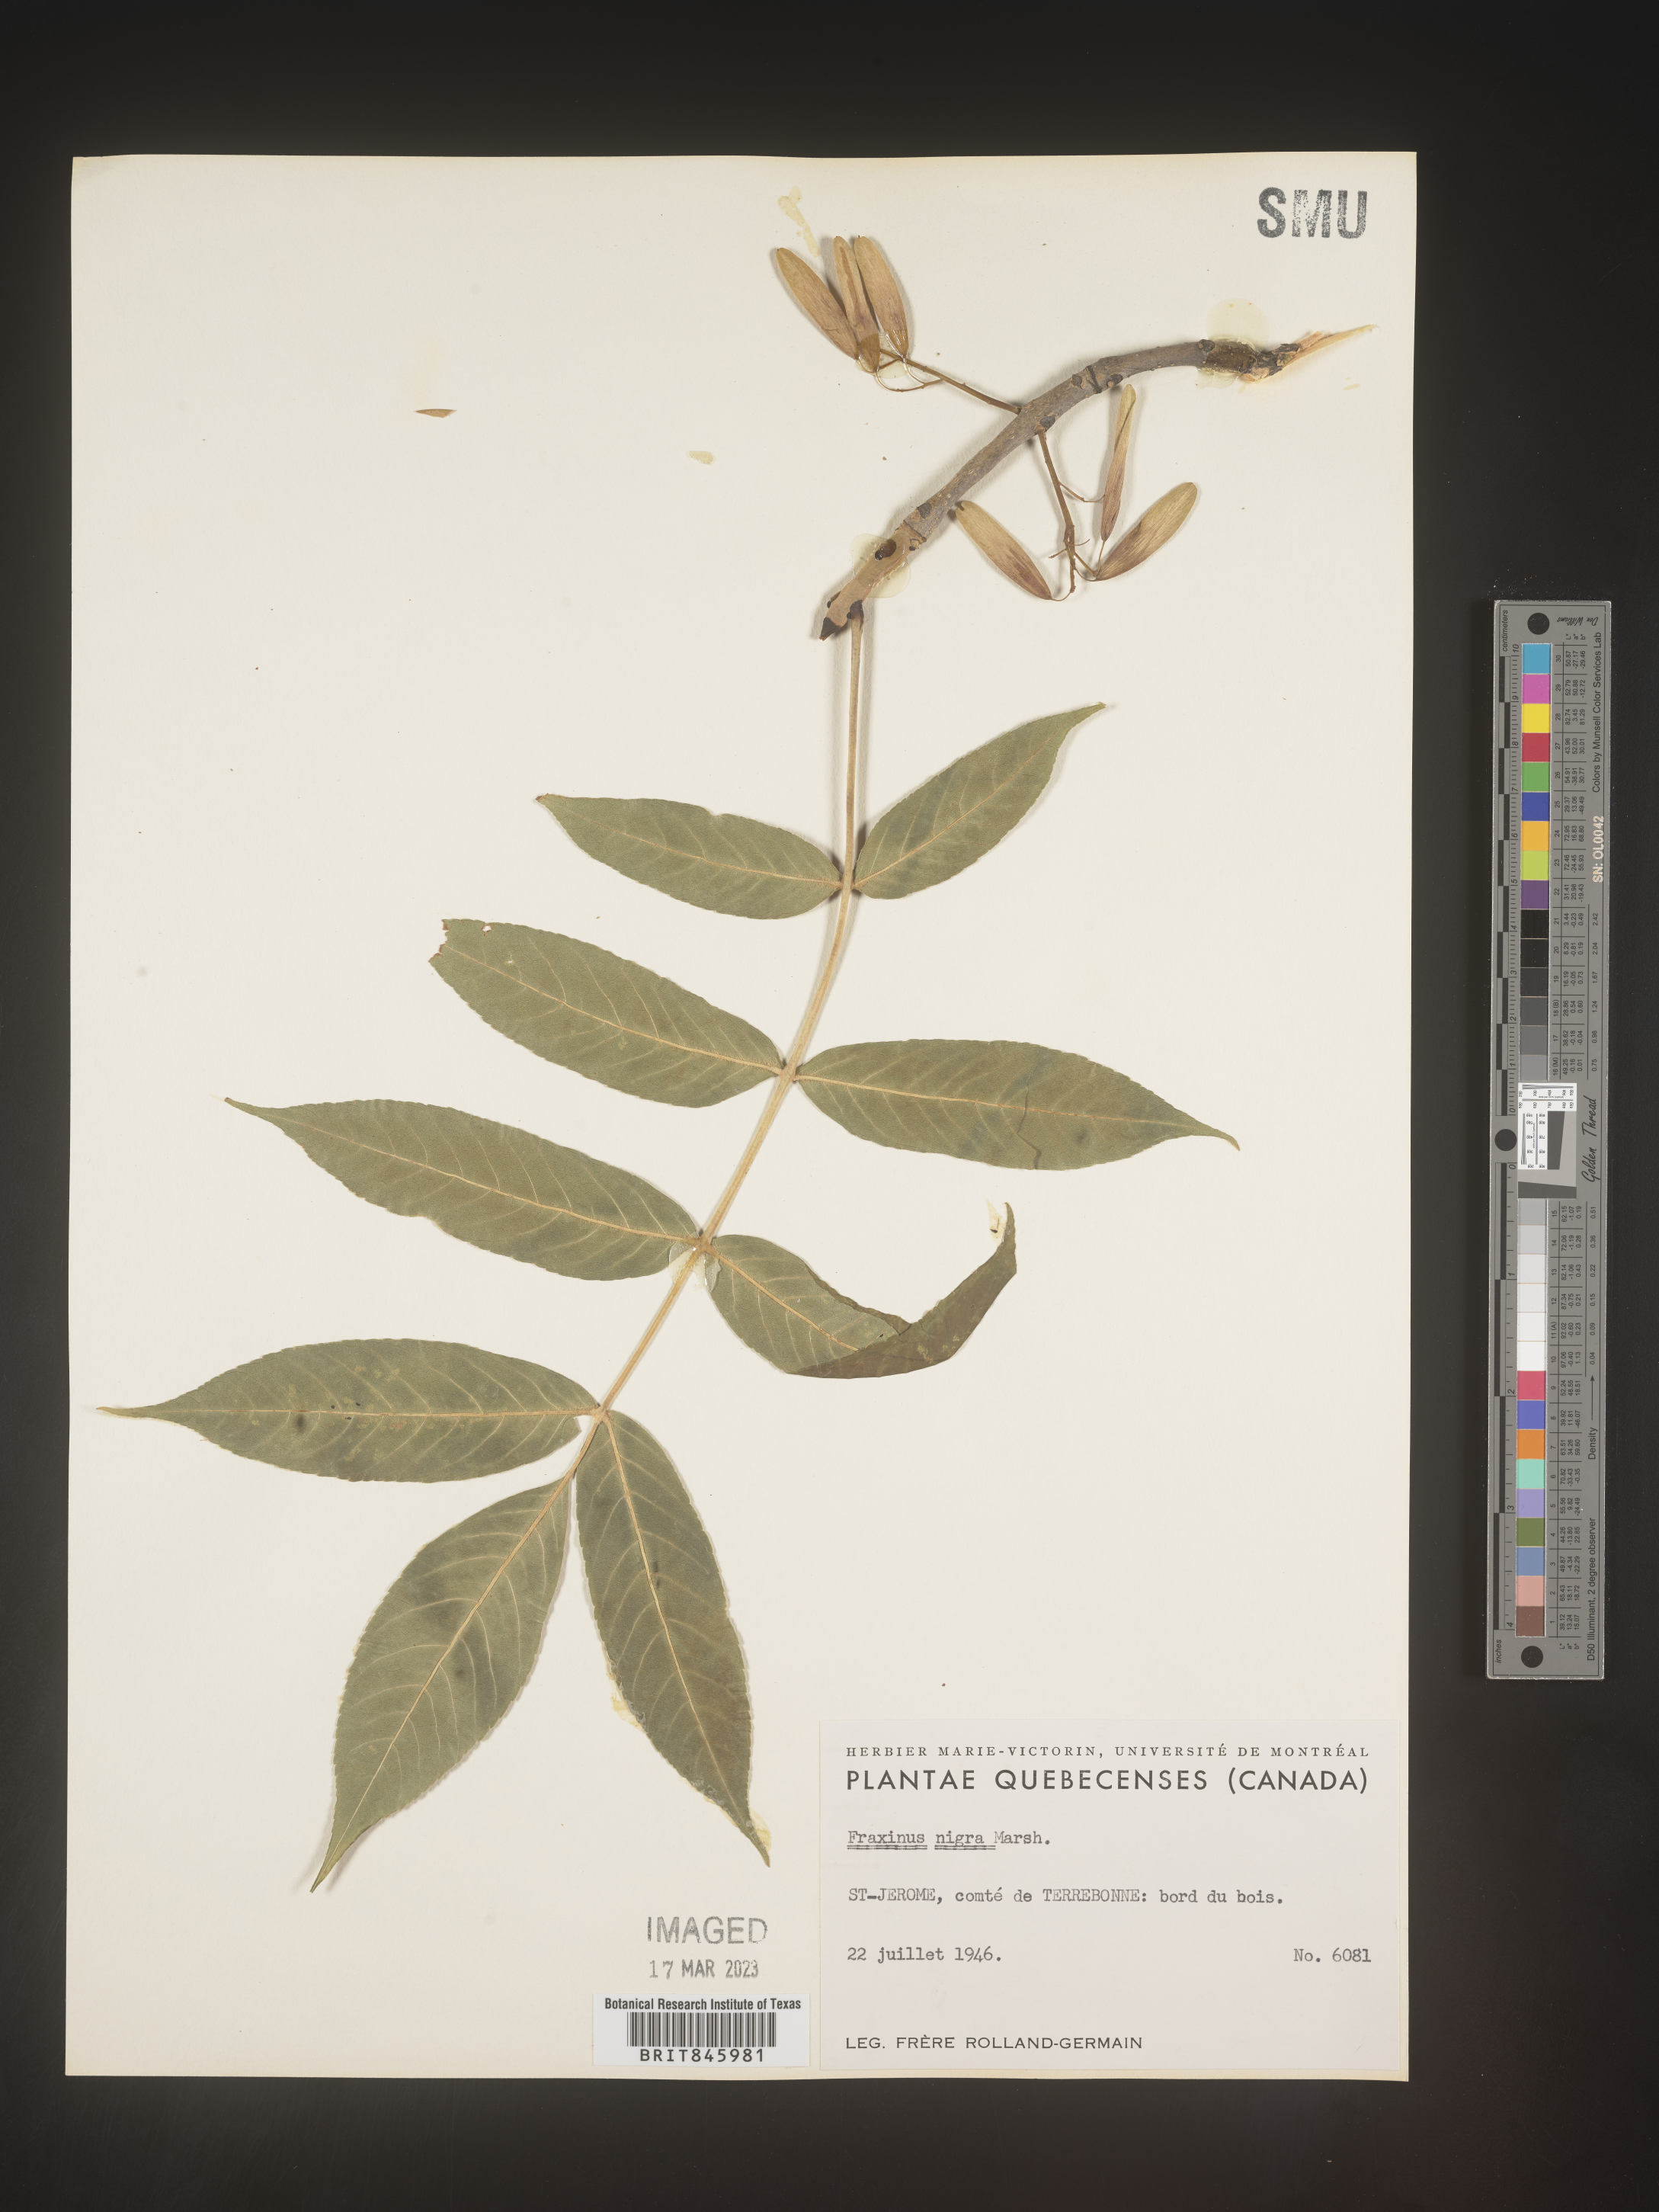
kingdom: Plantae
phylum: Tracheophyta
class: Magnoliopsida
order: Lamiales
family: Oleaceae
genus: Fraxinus
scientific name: Fraxinus nigra
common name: Black ash
